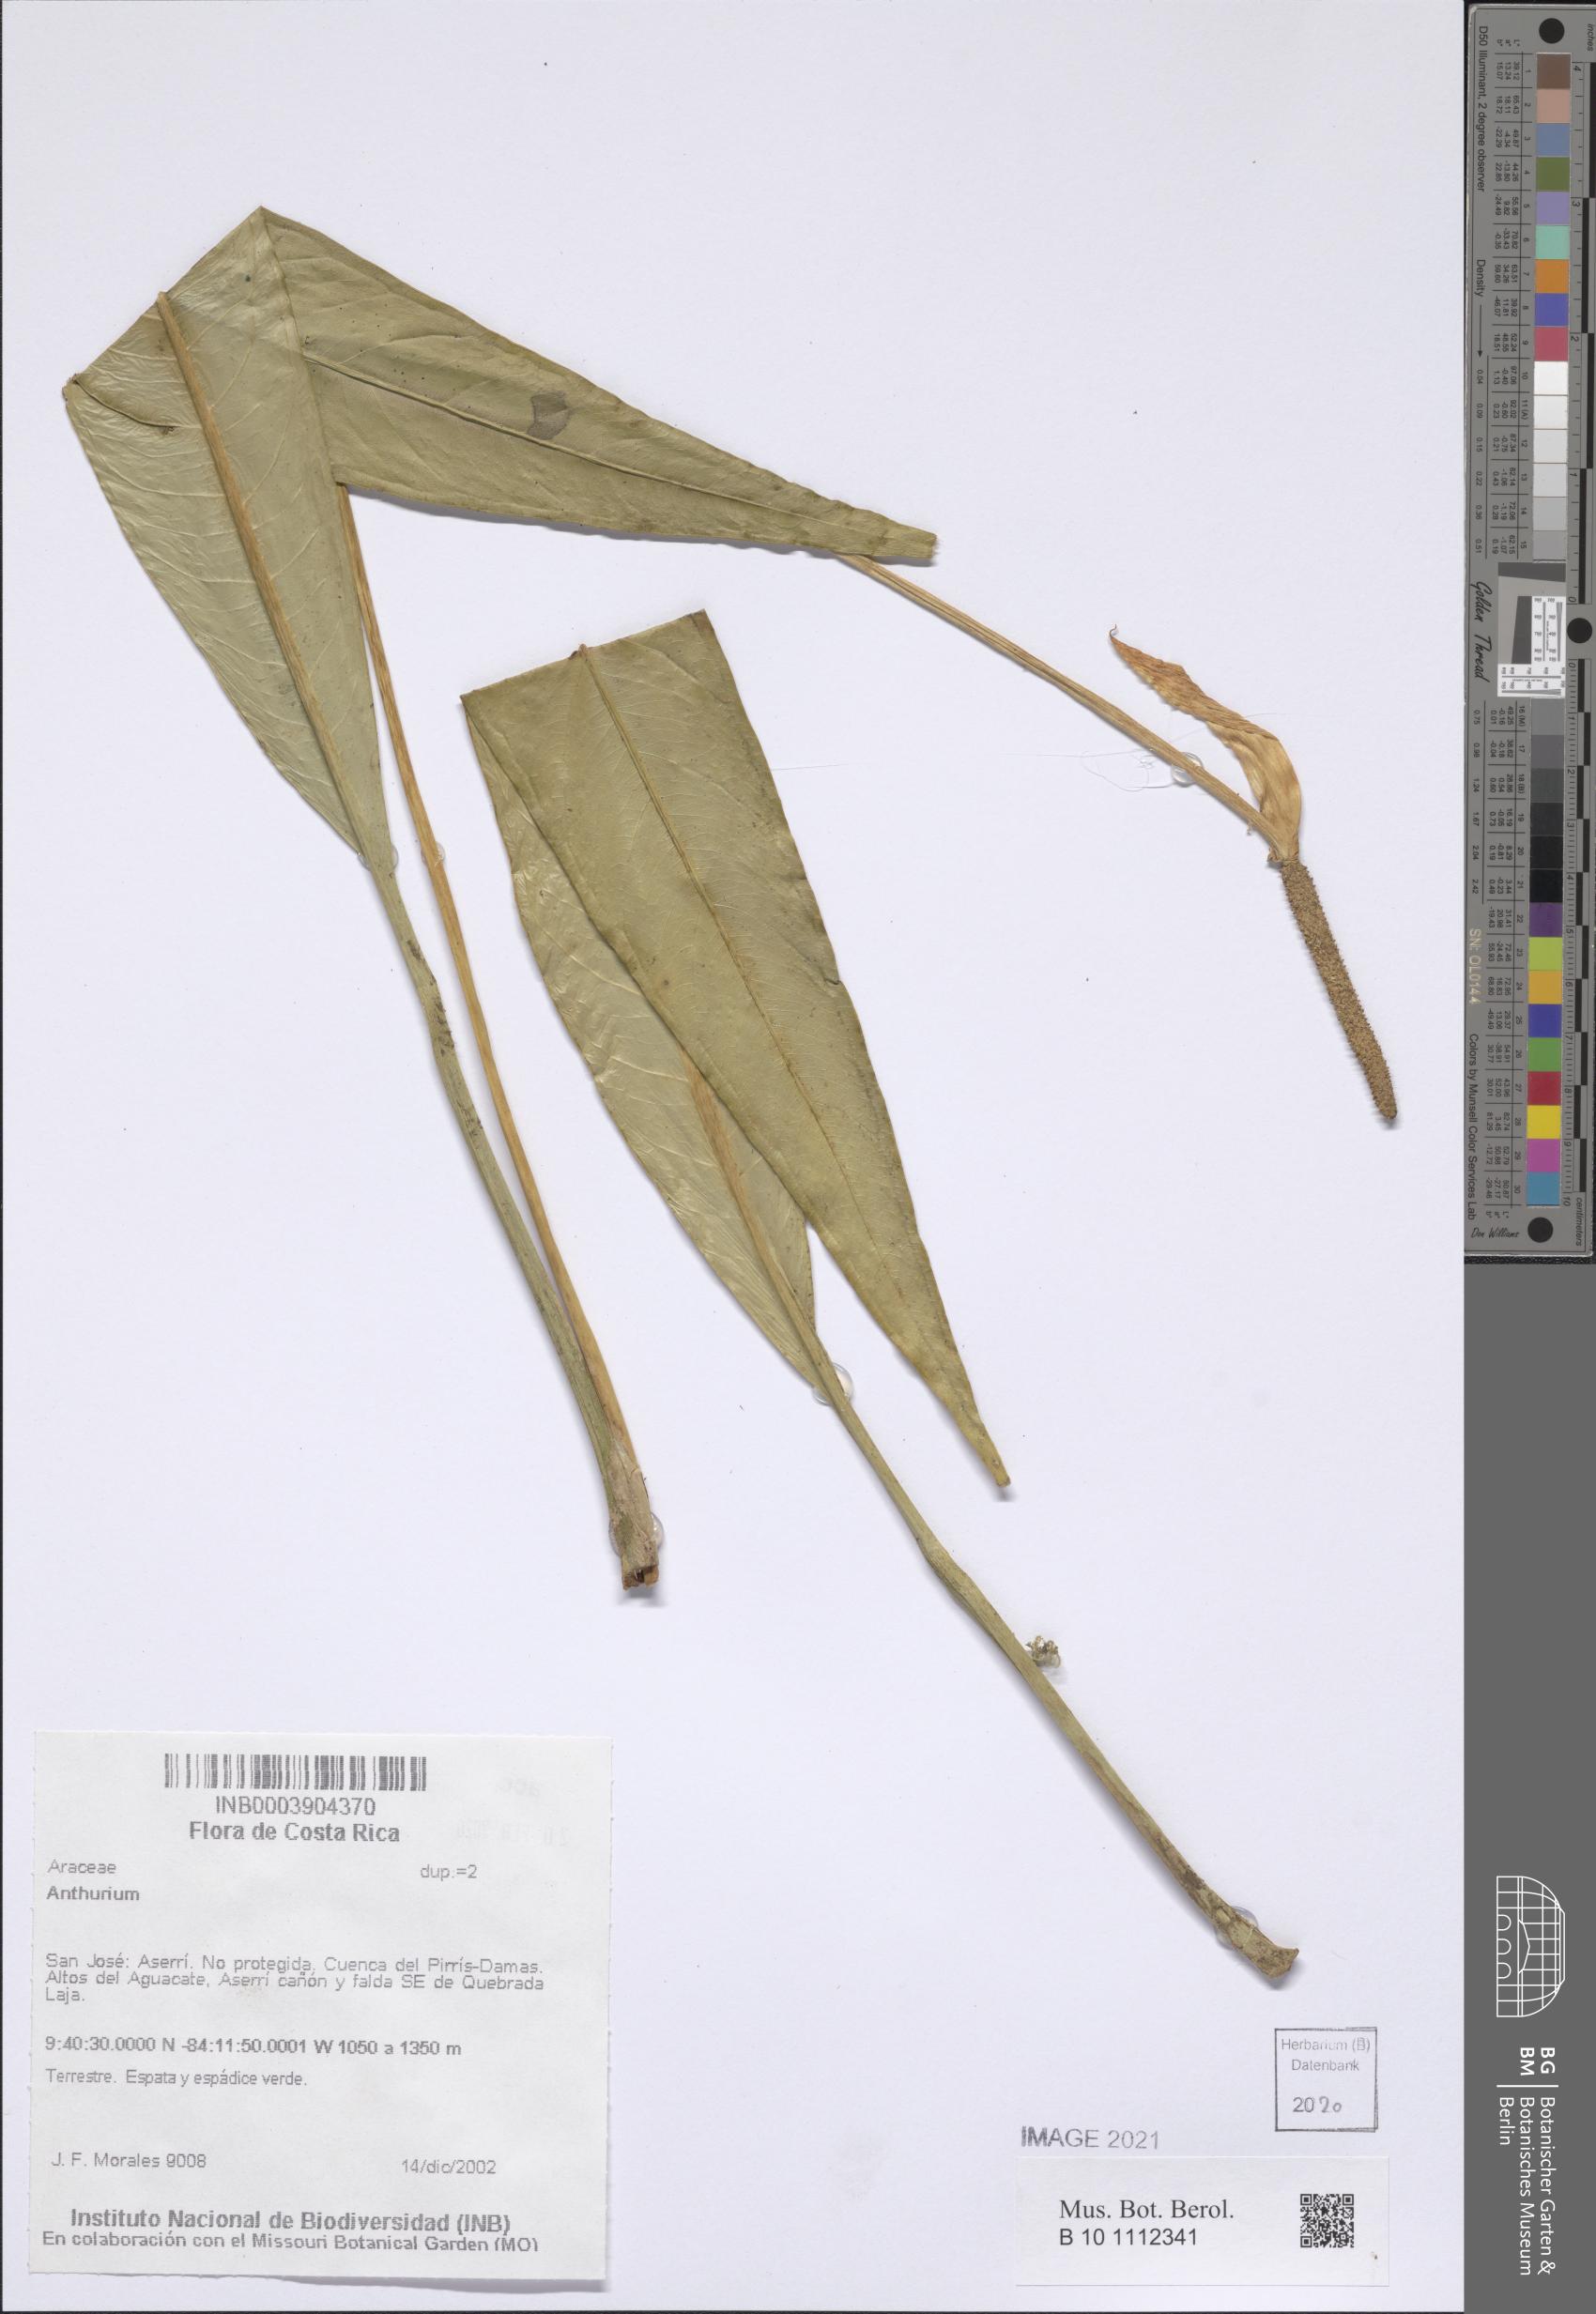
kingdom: Plantae
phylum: Tracheophyta
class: Liliopsida
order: Alismatales
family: Araceae
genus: Anthurium
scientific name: Anthurium
